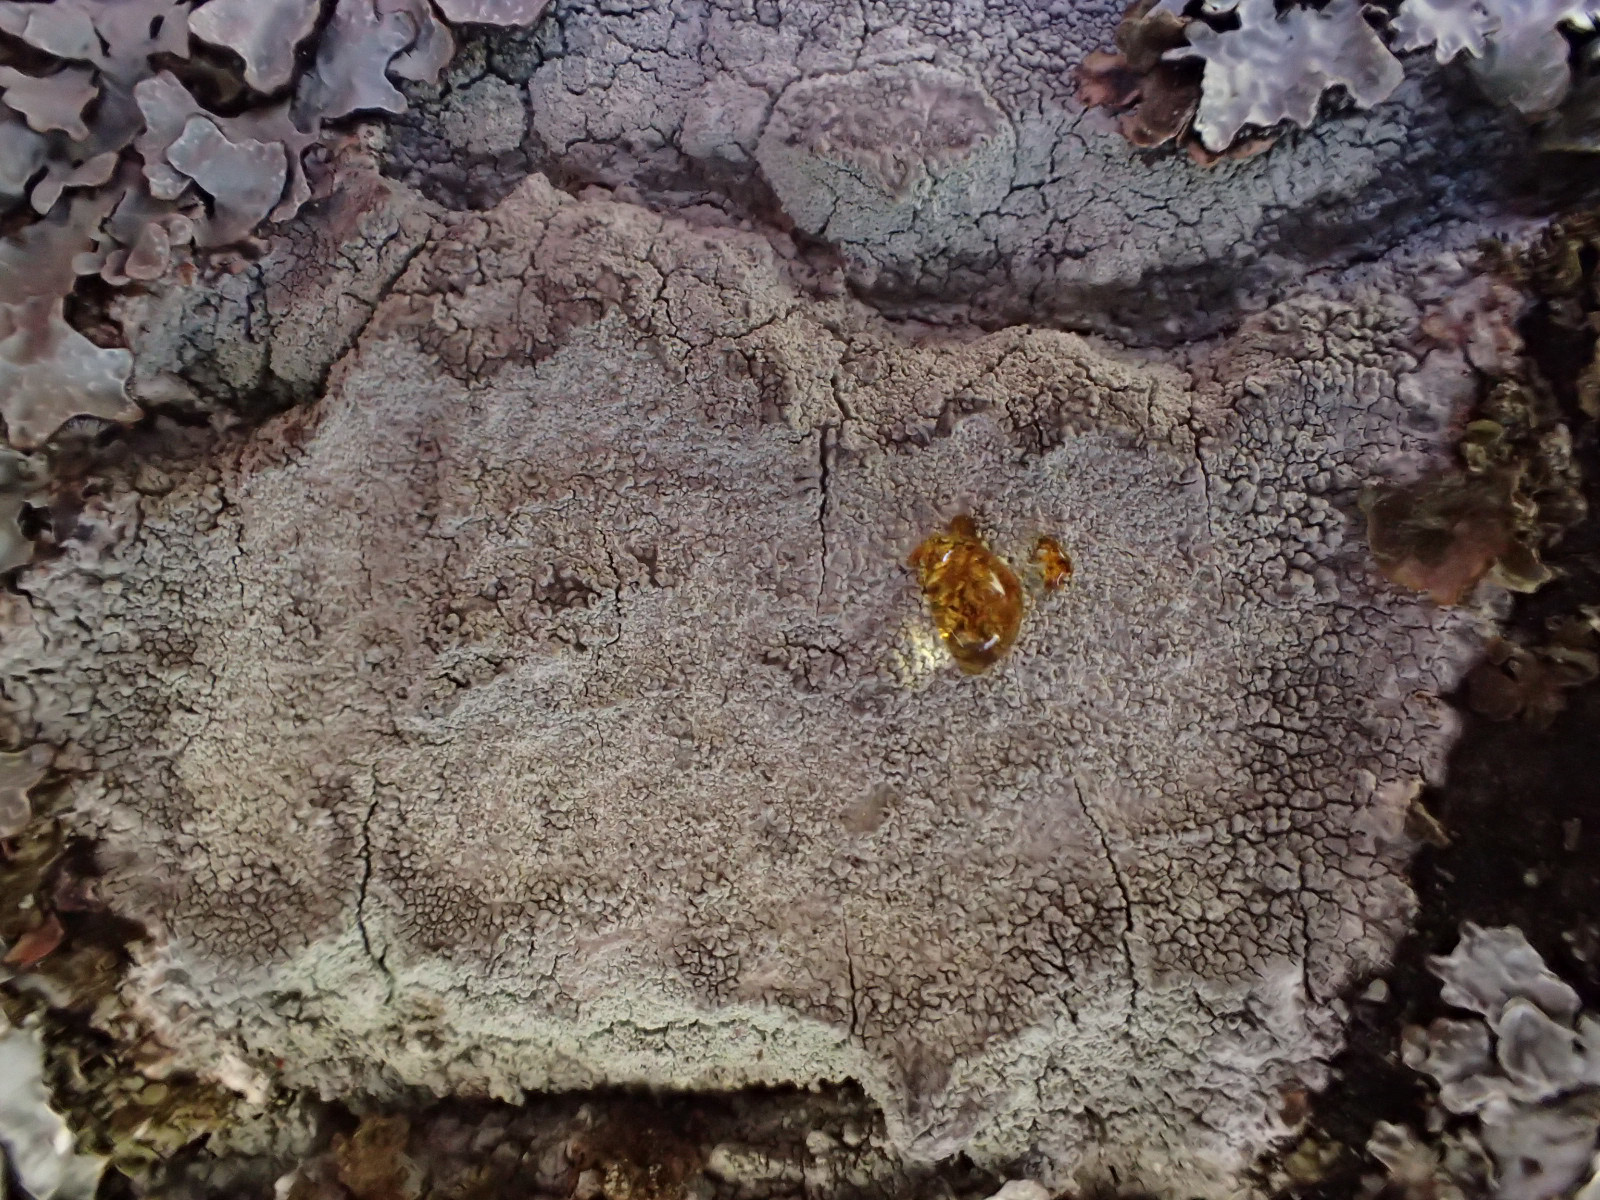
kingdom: Fungi
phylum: Ascomycota
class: Lecanoromycetes
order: Ostropales
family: Phlyctidaceae
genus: Phlyctis
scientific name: Phlyctis argena
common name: almindelig sølvlav
